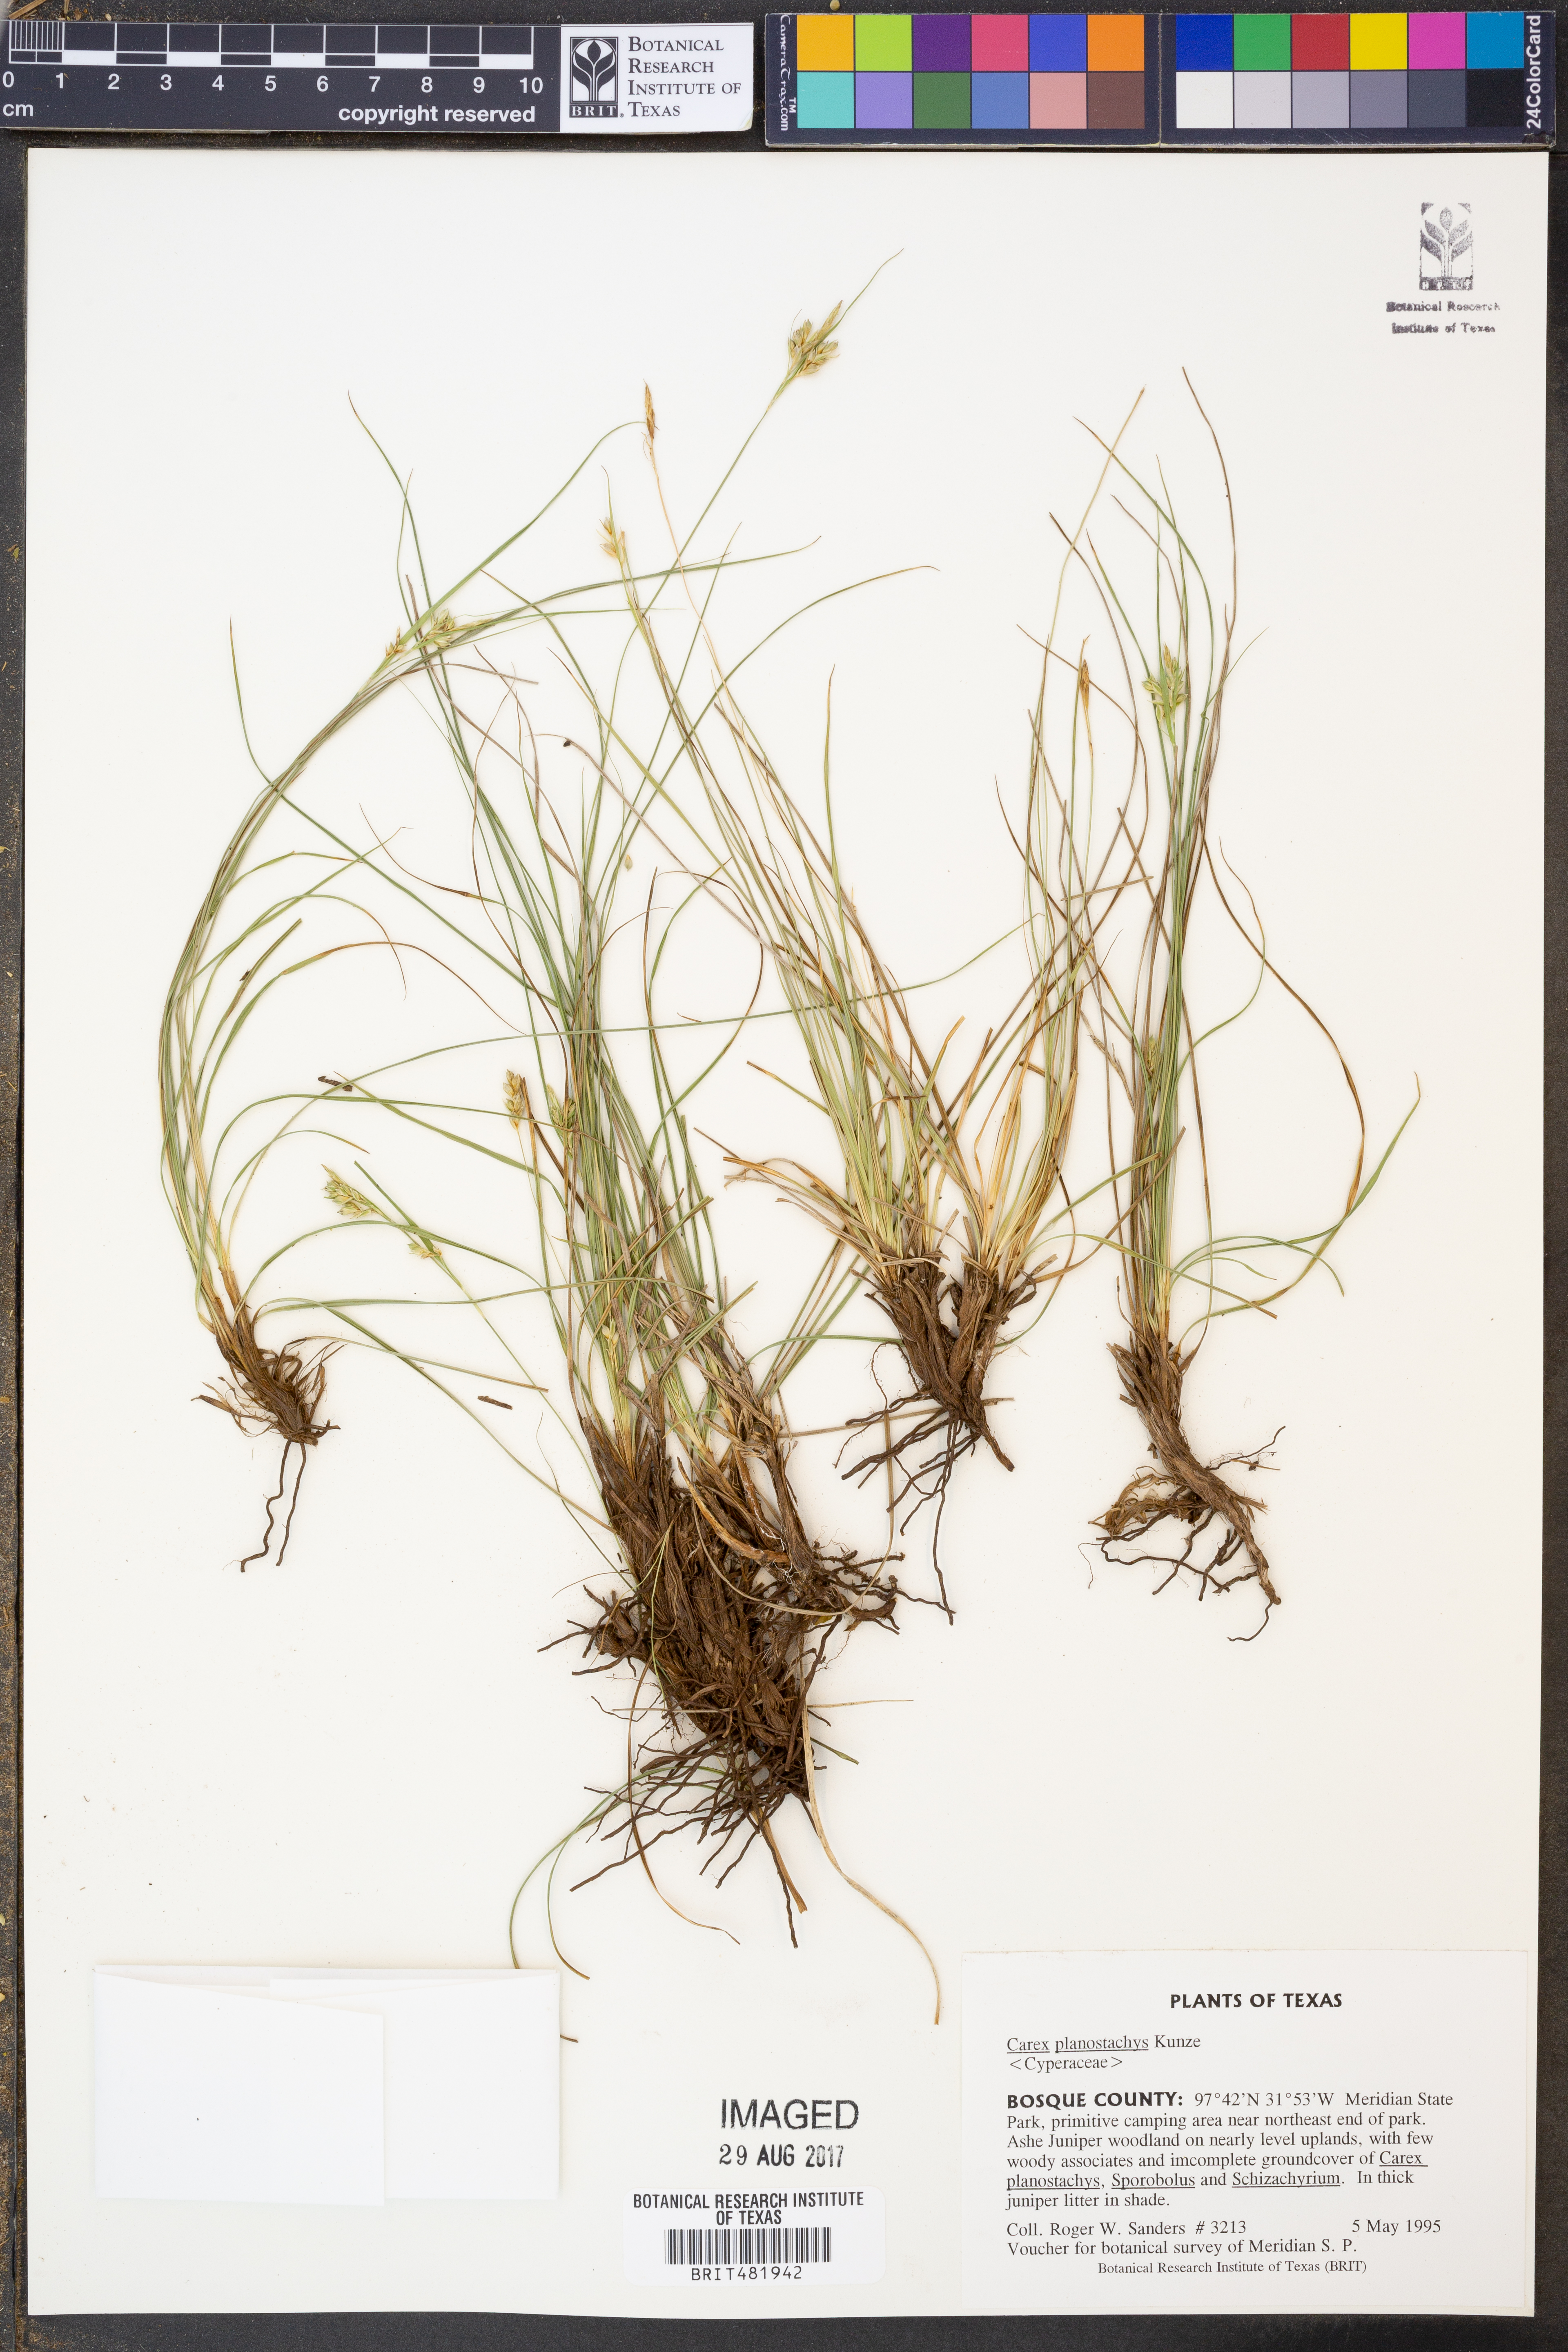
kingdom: Plantae
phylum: Tracheophyta
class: Liliopsida
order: Poales
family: Cyperaceae
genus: Carex
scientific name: Carex planostachys
